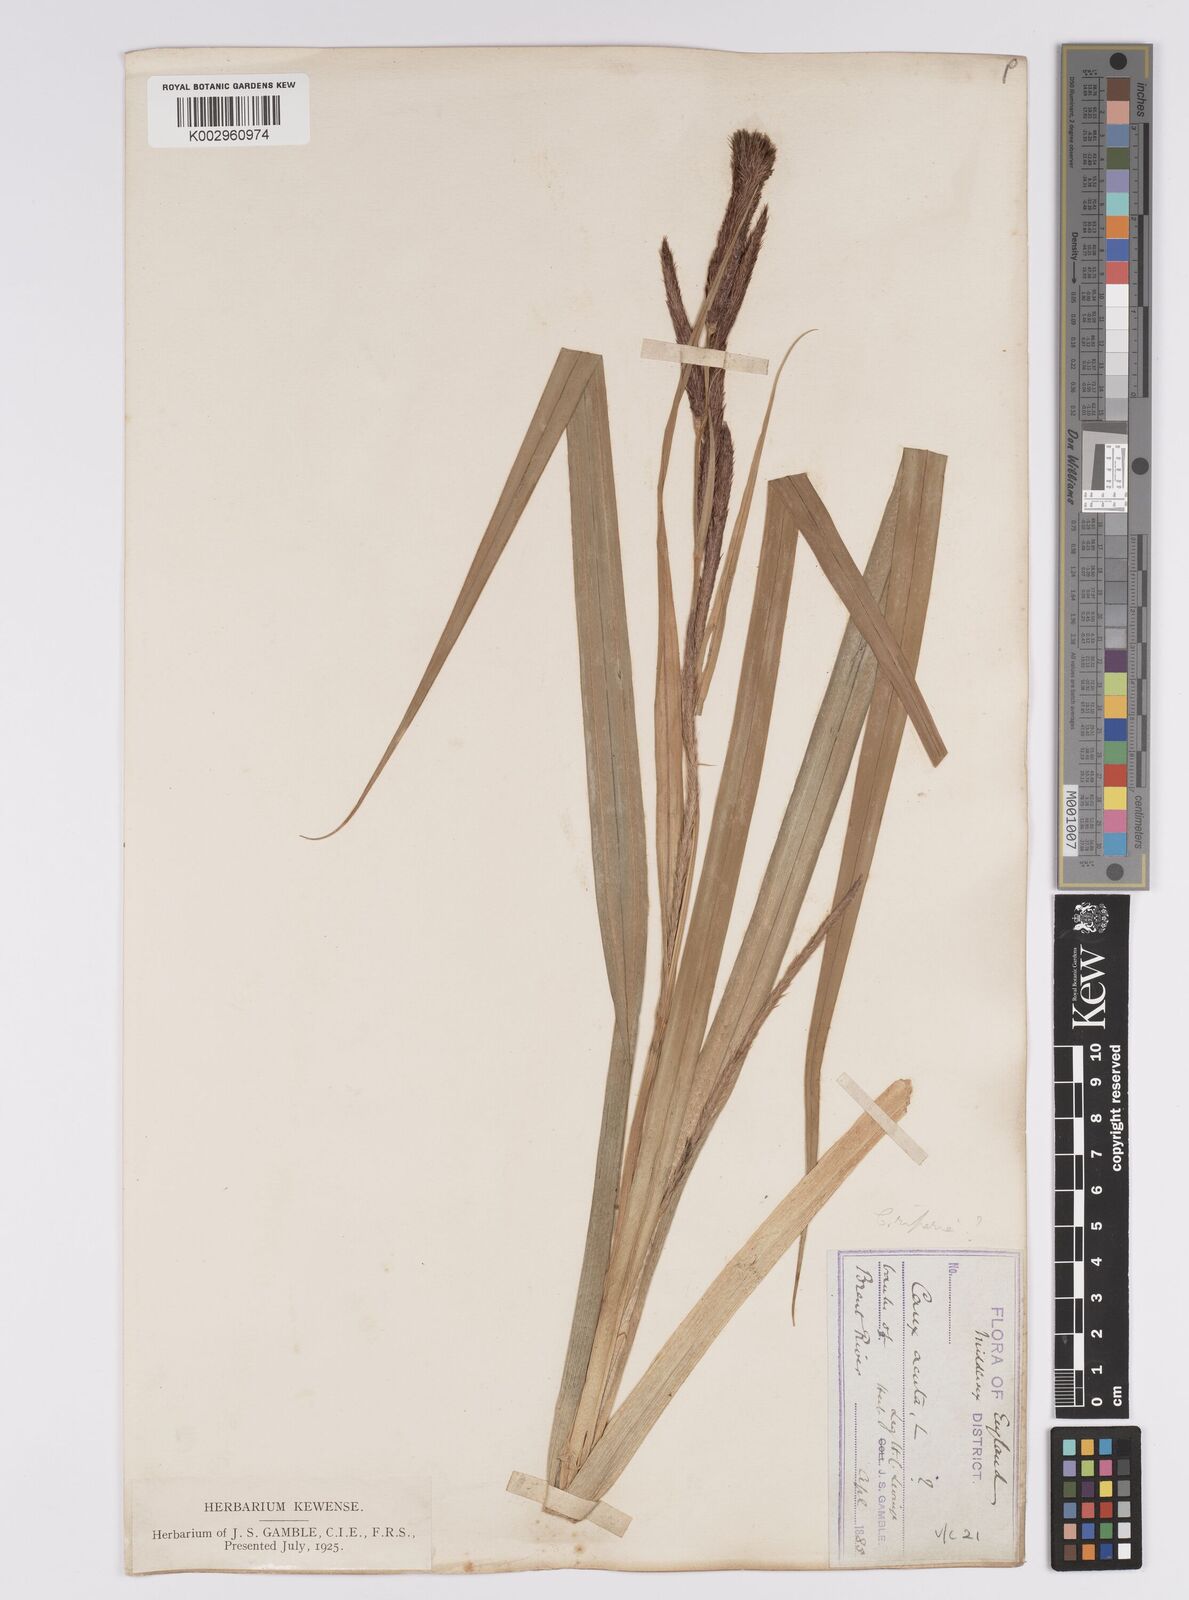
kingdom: Plantae
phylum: Tracheophyta
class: Liliopsida
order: Poales
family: Cyperaceae
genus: Carex
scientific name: Carex riparia
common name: Greater pond-sedge
